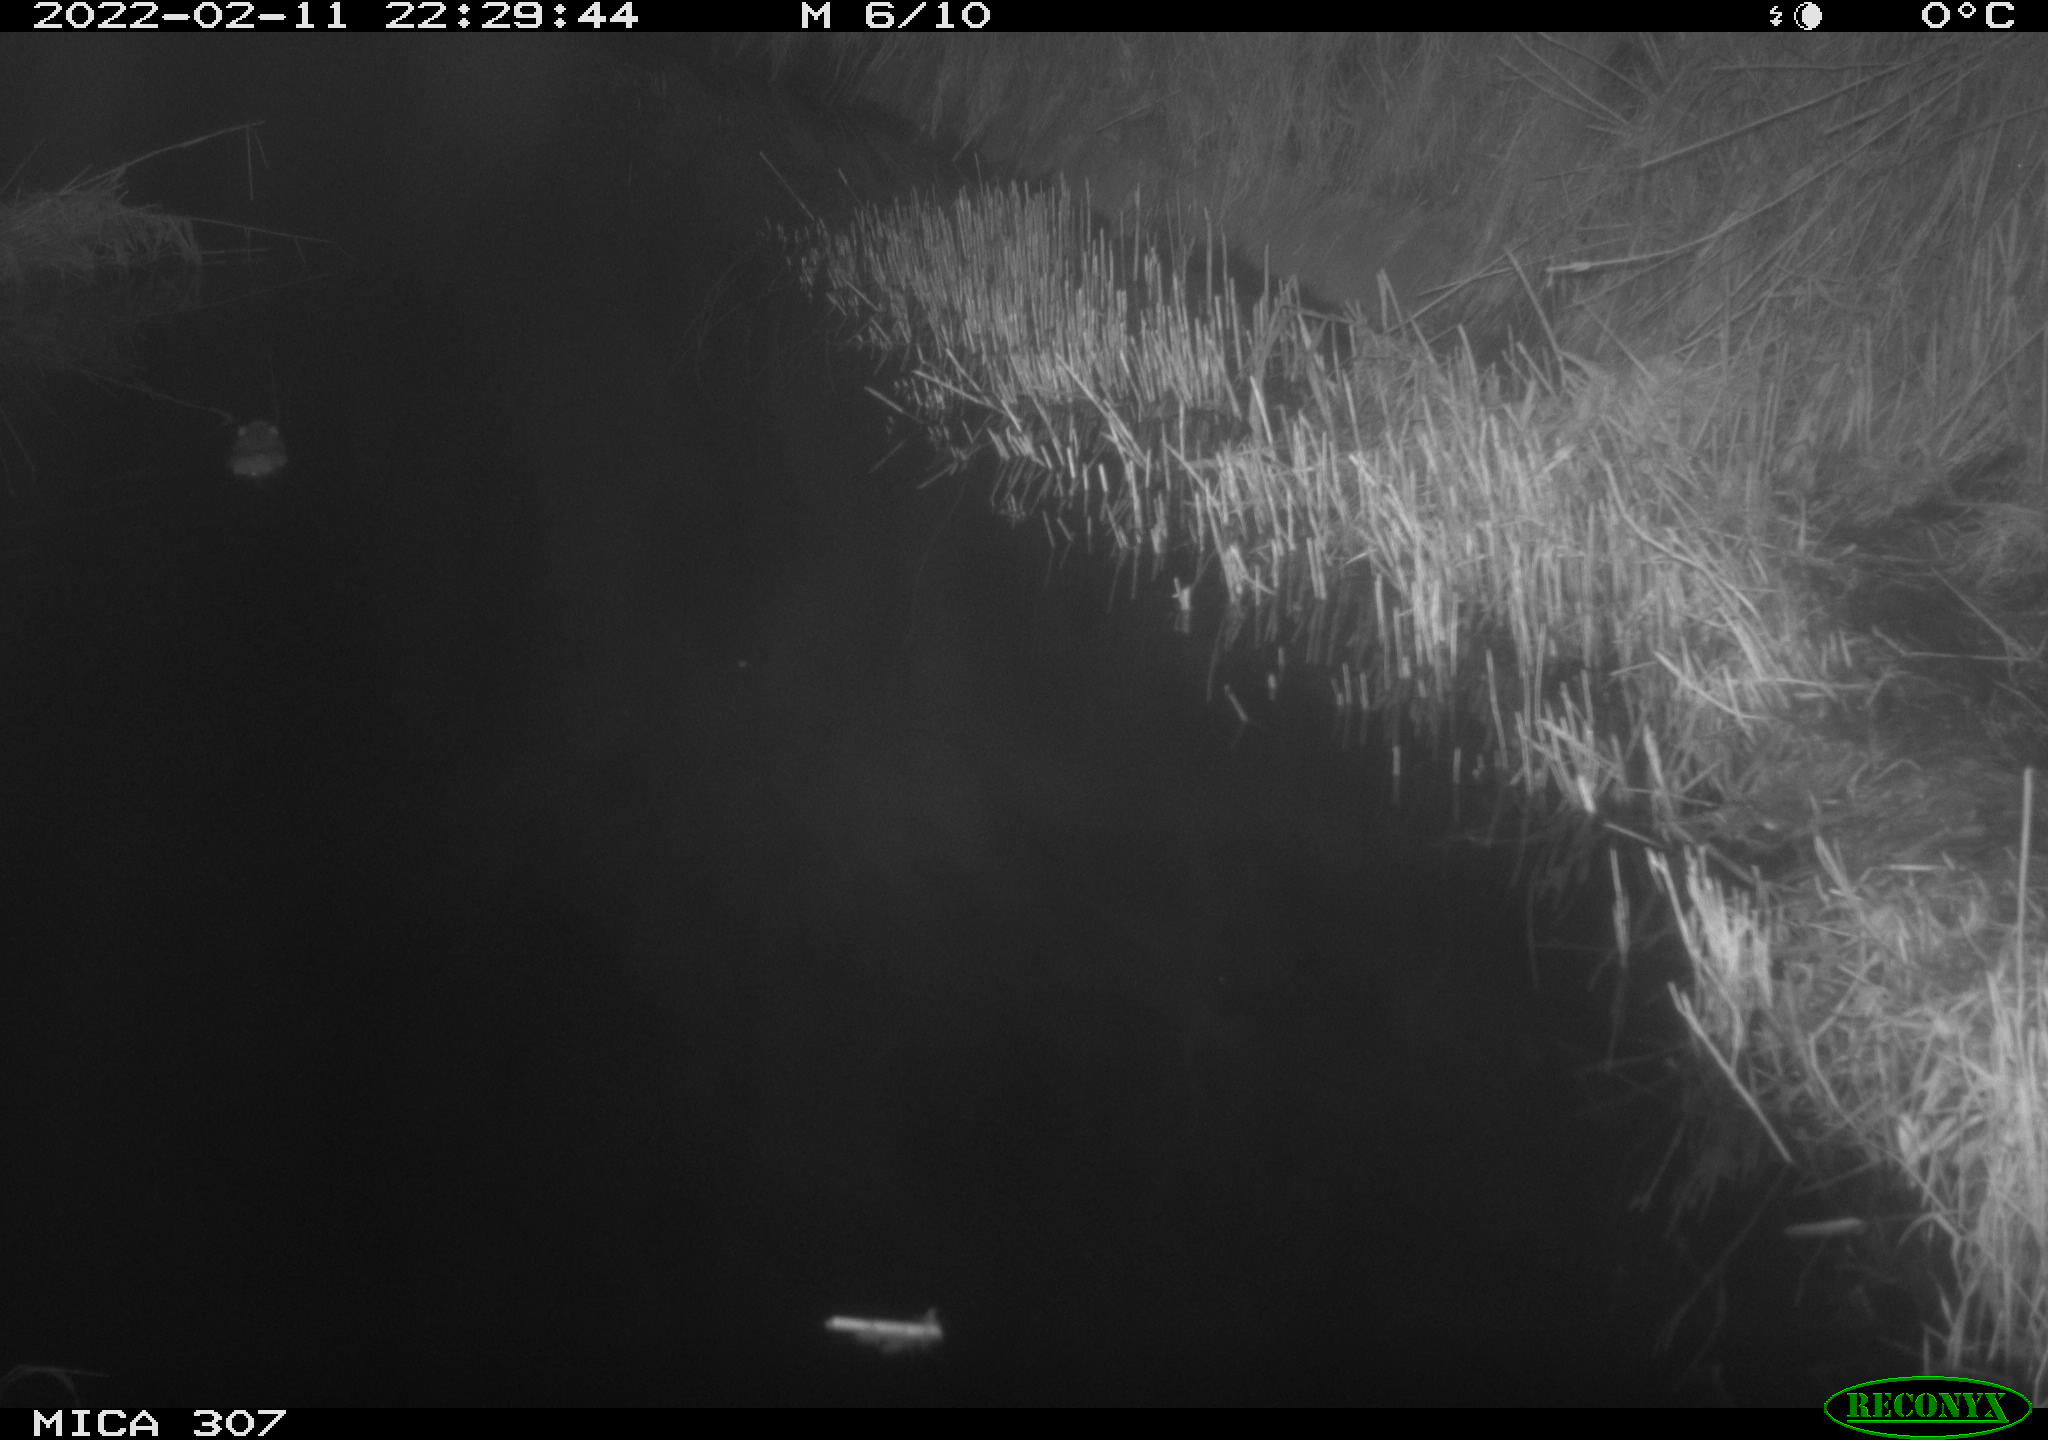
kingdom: Animalia
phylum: Chordata
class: Mammalia
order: Rodentia
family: Muridae
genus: Rattus
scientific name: Rattus norvegicus
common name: Brown rat
